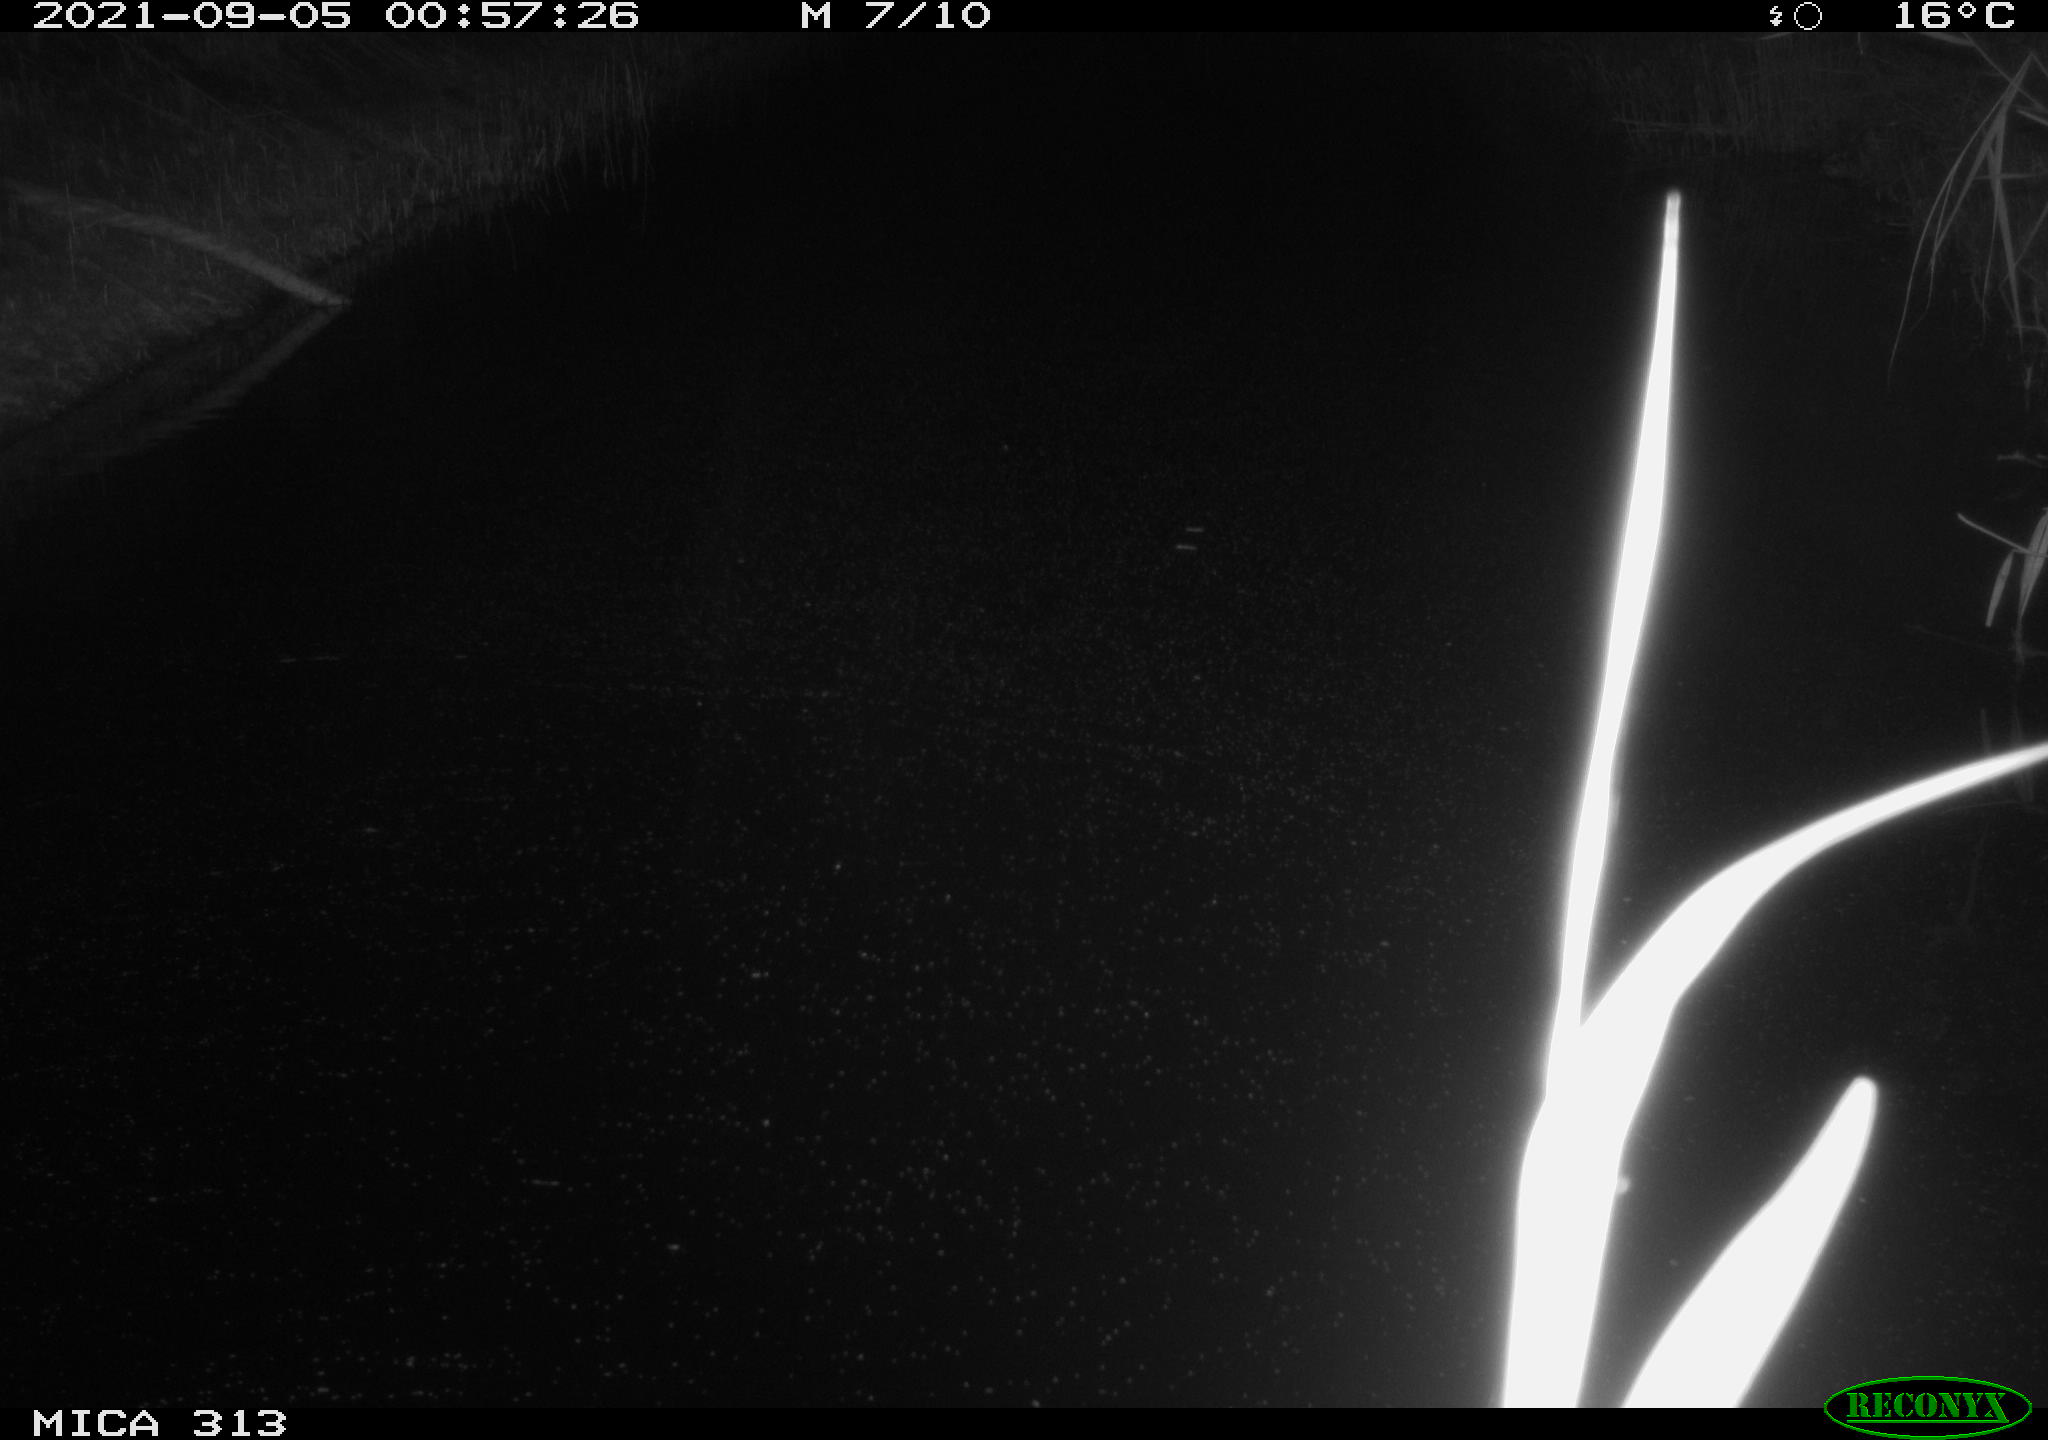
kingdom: Animalia
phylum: Chordata
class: Mammalia
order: Rodentia
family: Muridae
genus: Rattus
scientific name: Rattus norvegicus
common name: Brown rat
